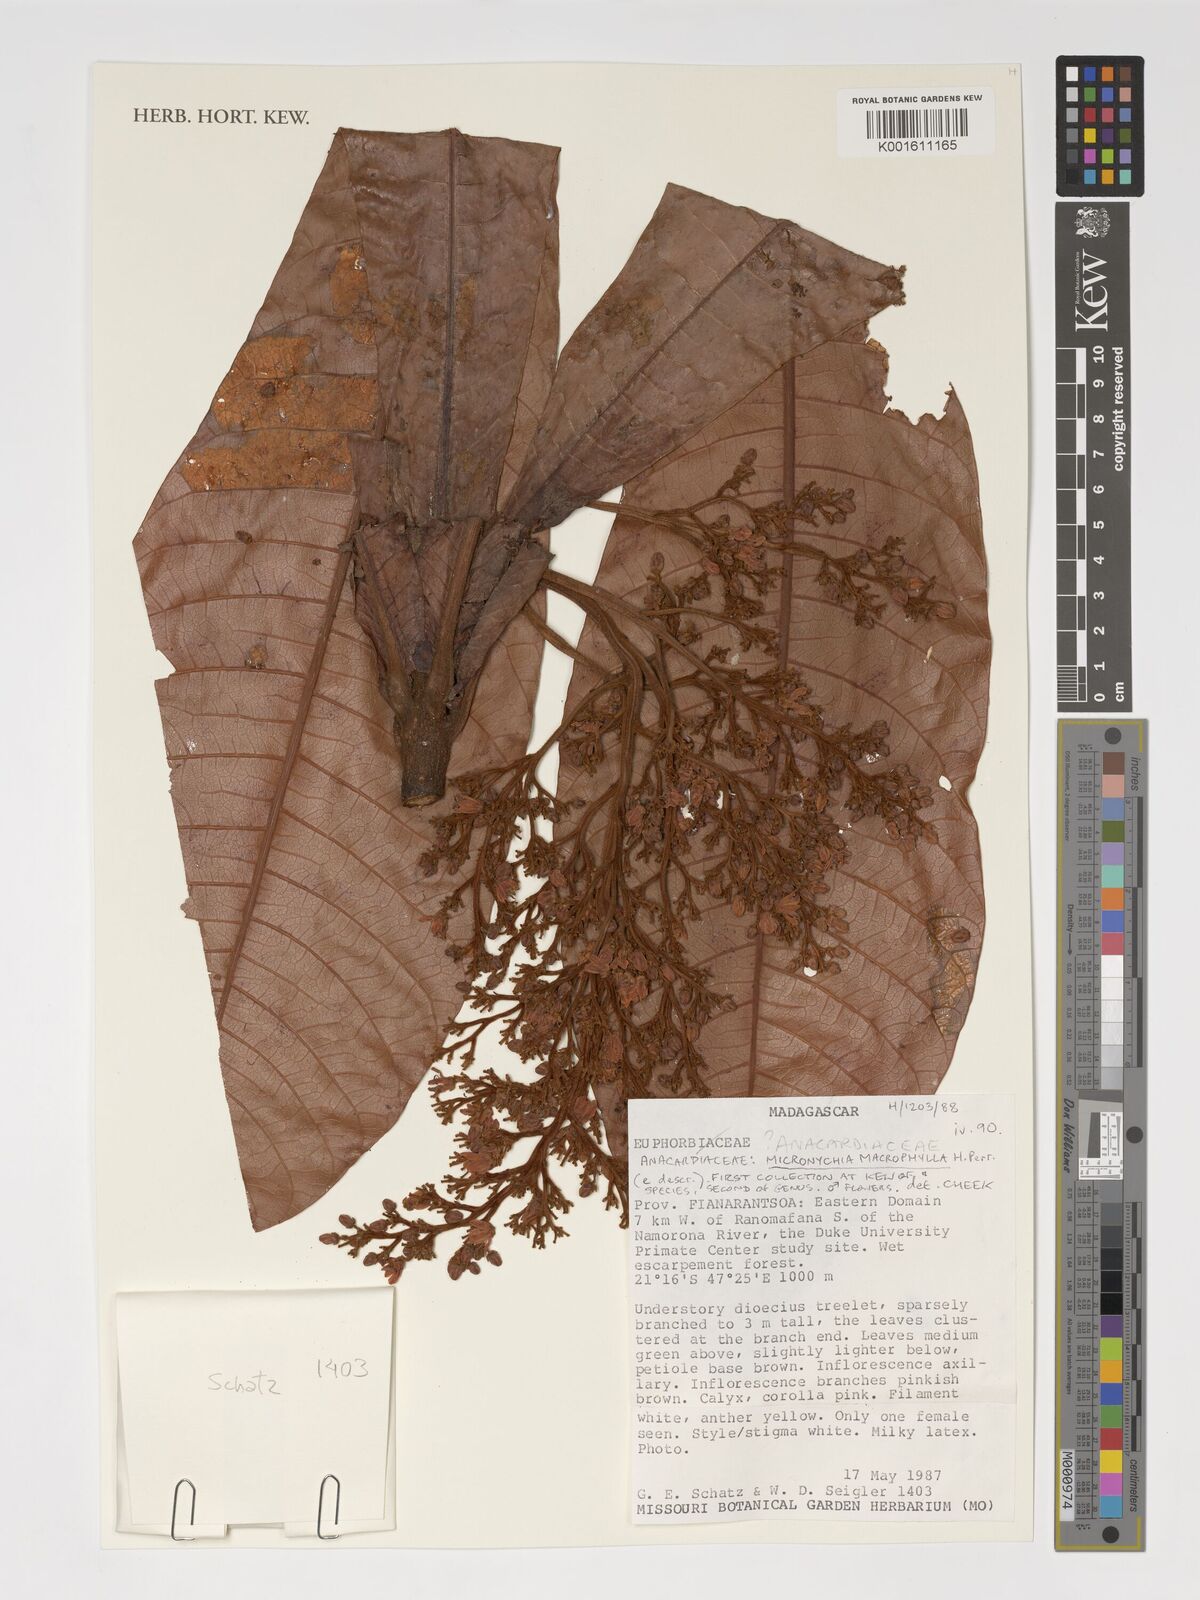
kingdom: Plantae
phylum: Tracheophyta
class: Magnoliopsida
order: Sapindales
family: Anacardiaceae
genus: Micronychia
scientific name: Micronychia macrophylla
